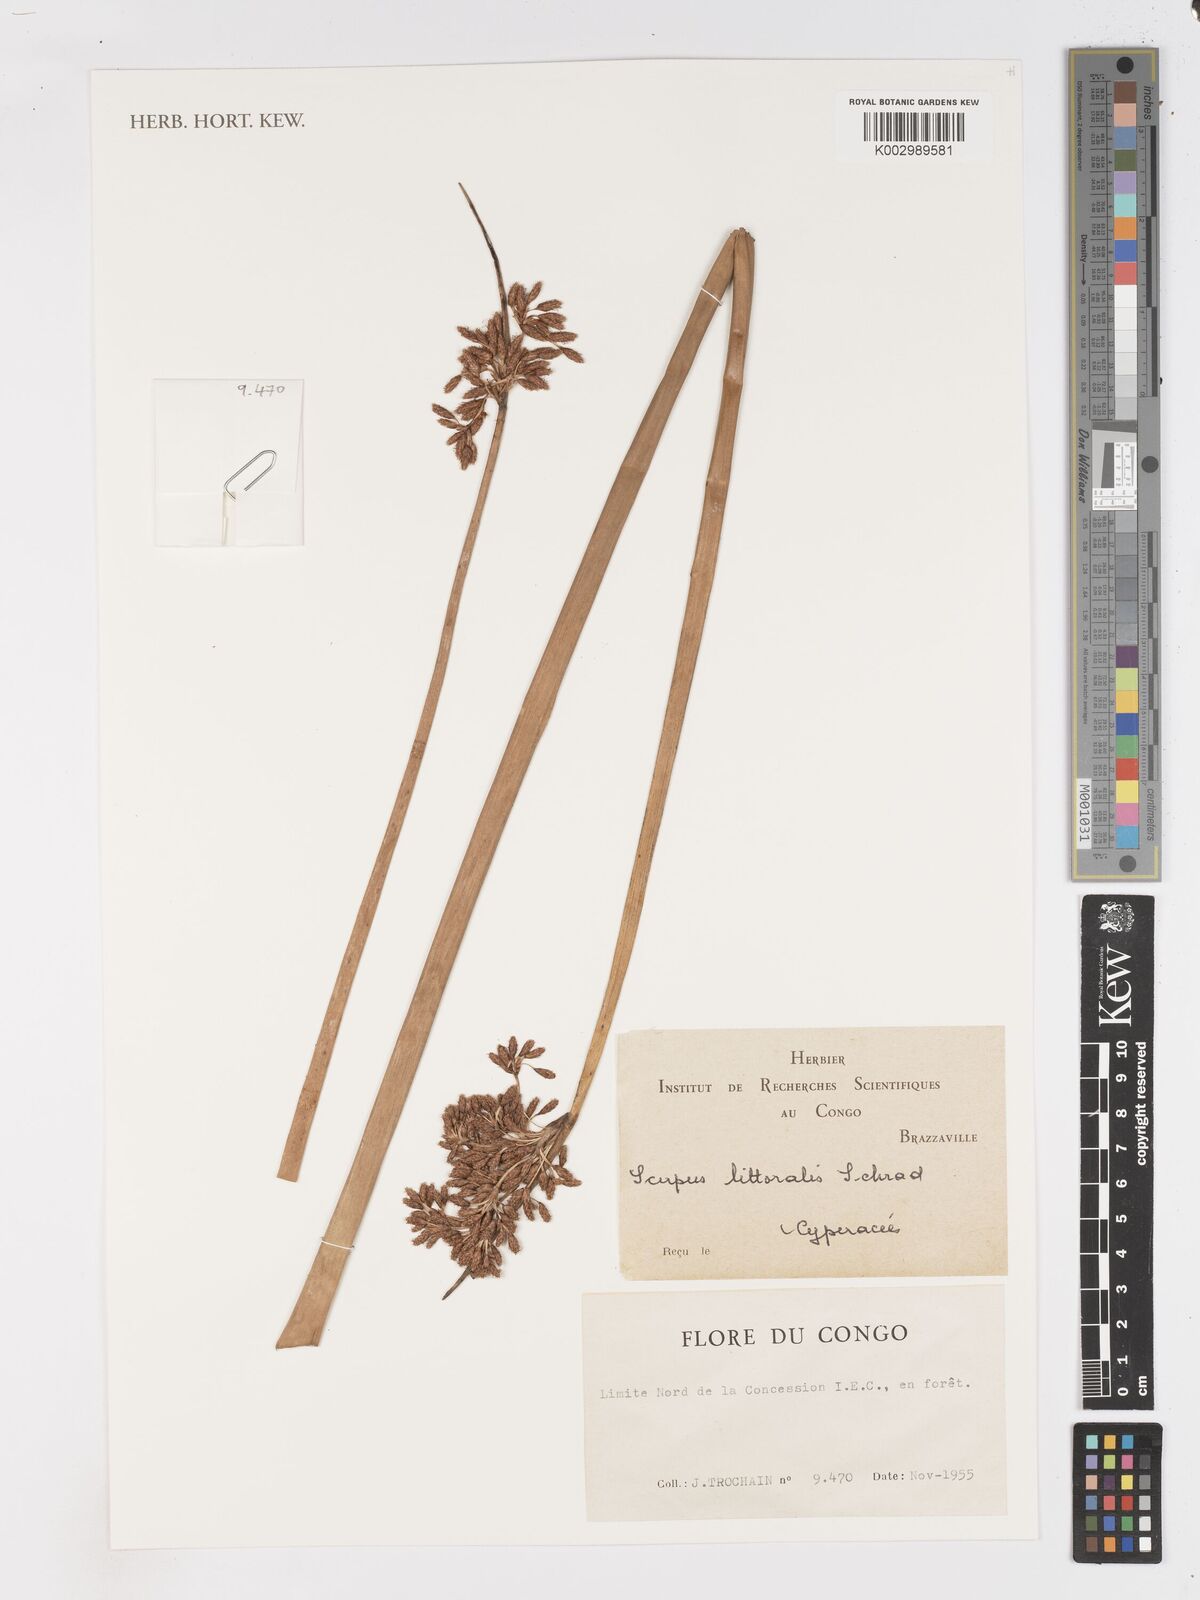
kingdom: Plantae
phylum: Tracheophyta
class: Liliopsida
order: Poales
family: Cyperaceae
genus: Schoenoplectus
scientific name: Schoenoplectus litoralis
